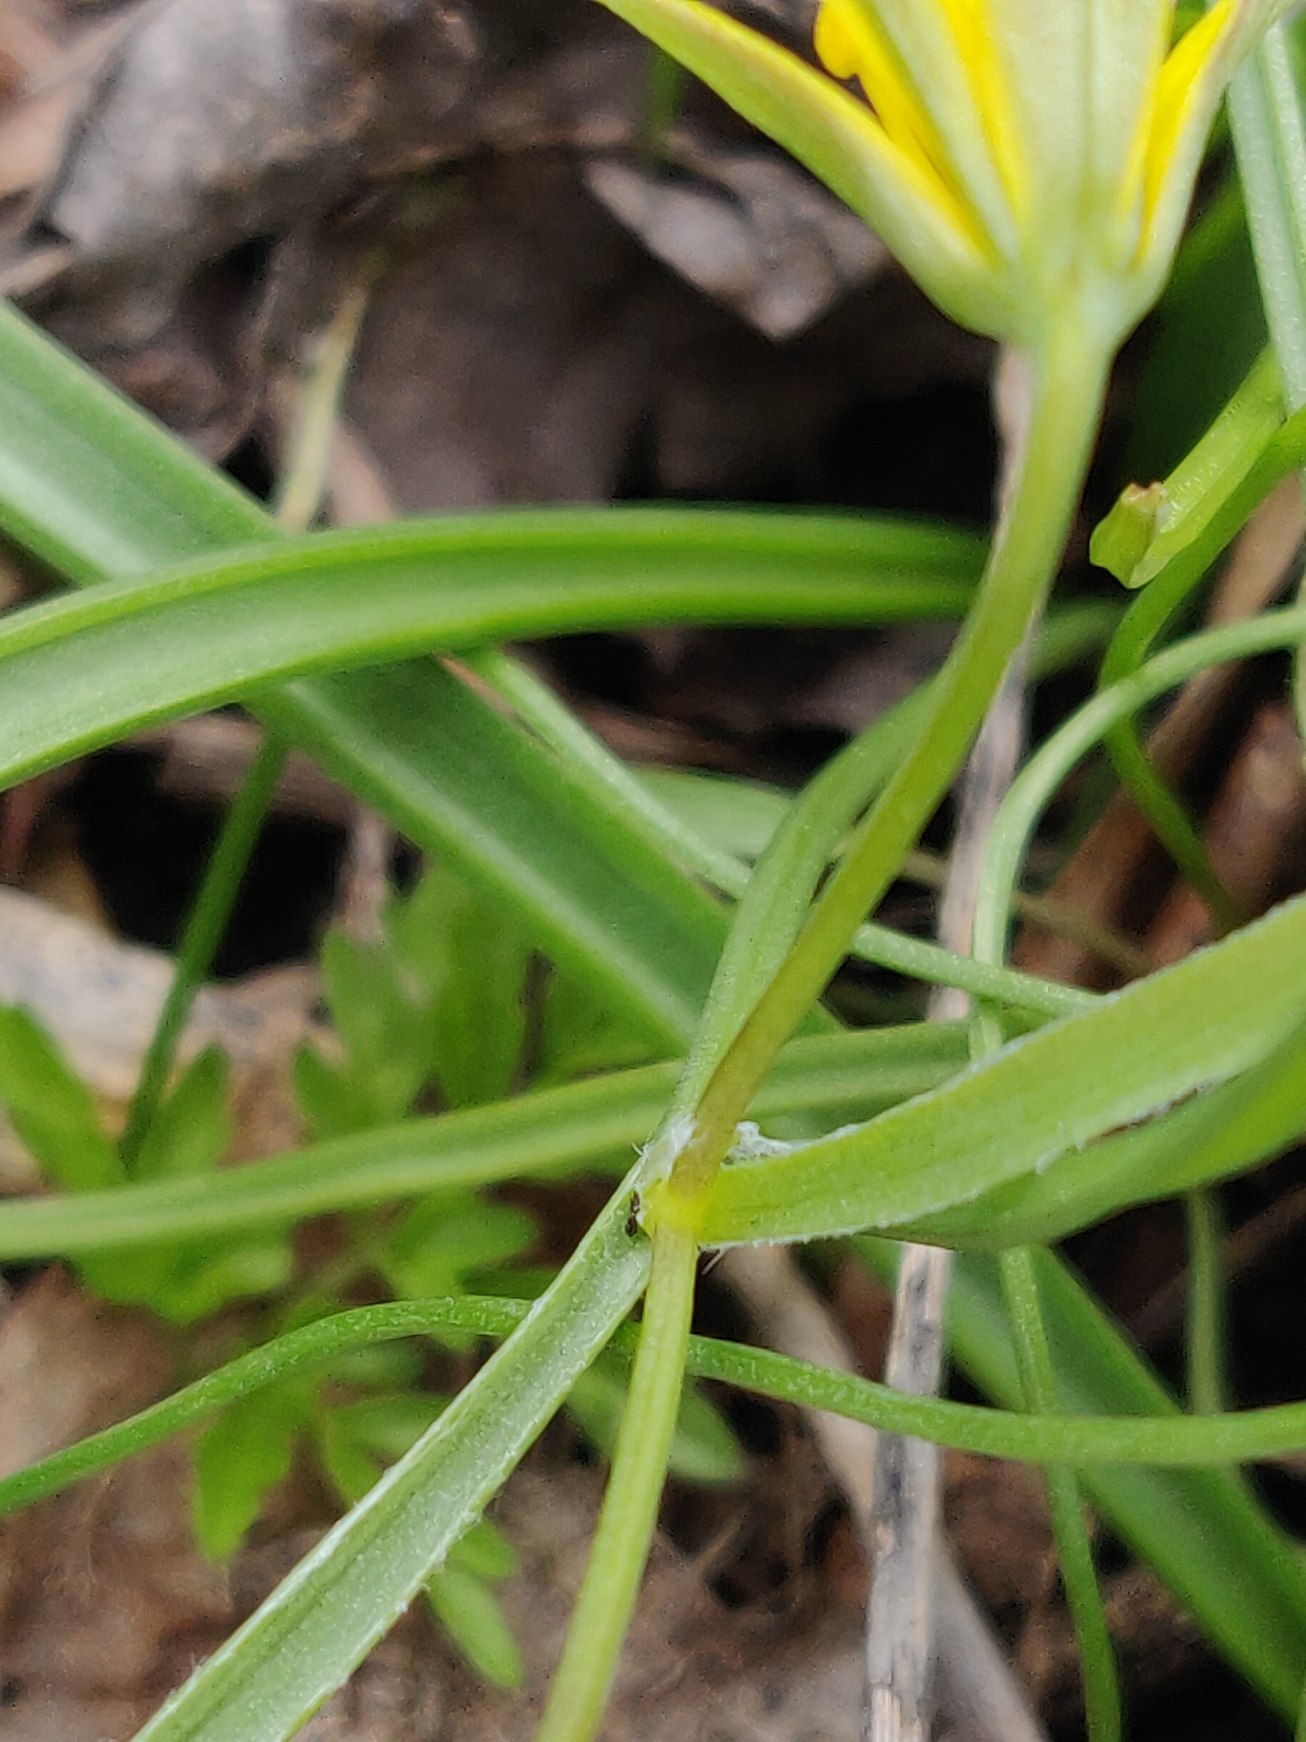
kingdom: Plantae
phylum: Tracheophyta
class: Liliopsida
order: Liliales
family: Liliaceae
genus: Gagea
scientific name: Gagea lutea
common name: Almindelig guldstjerne
